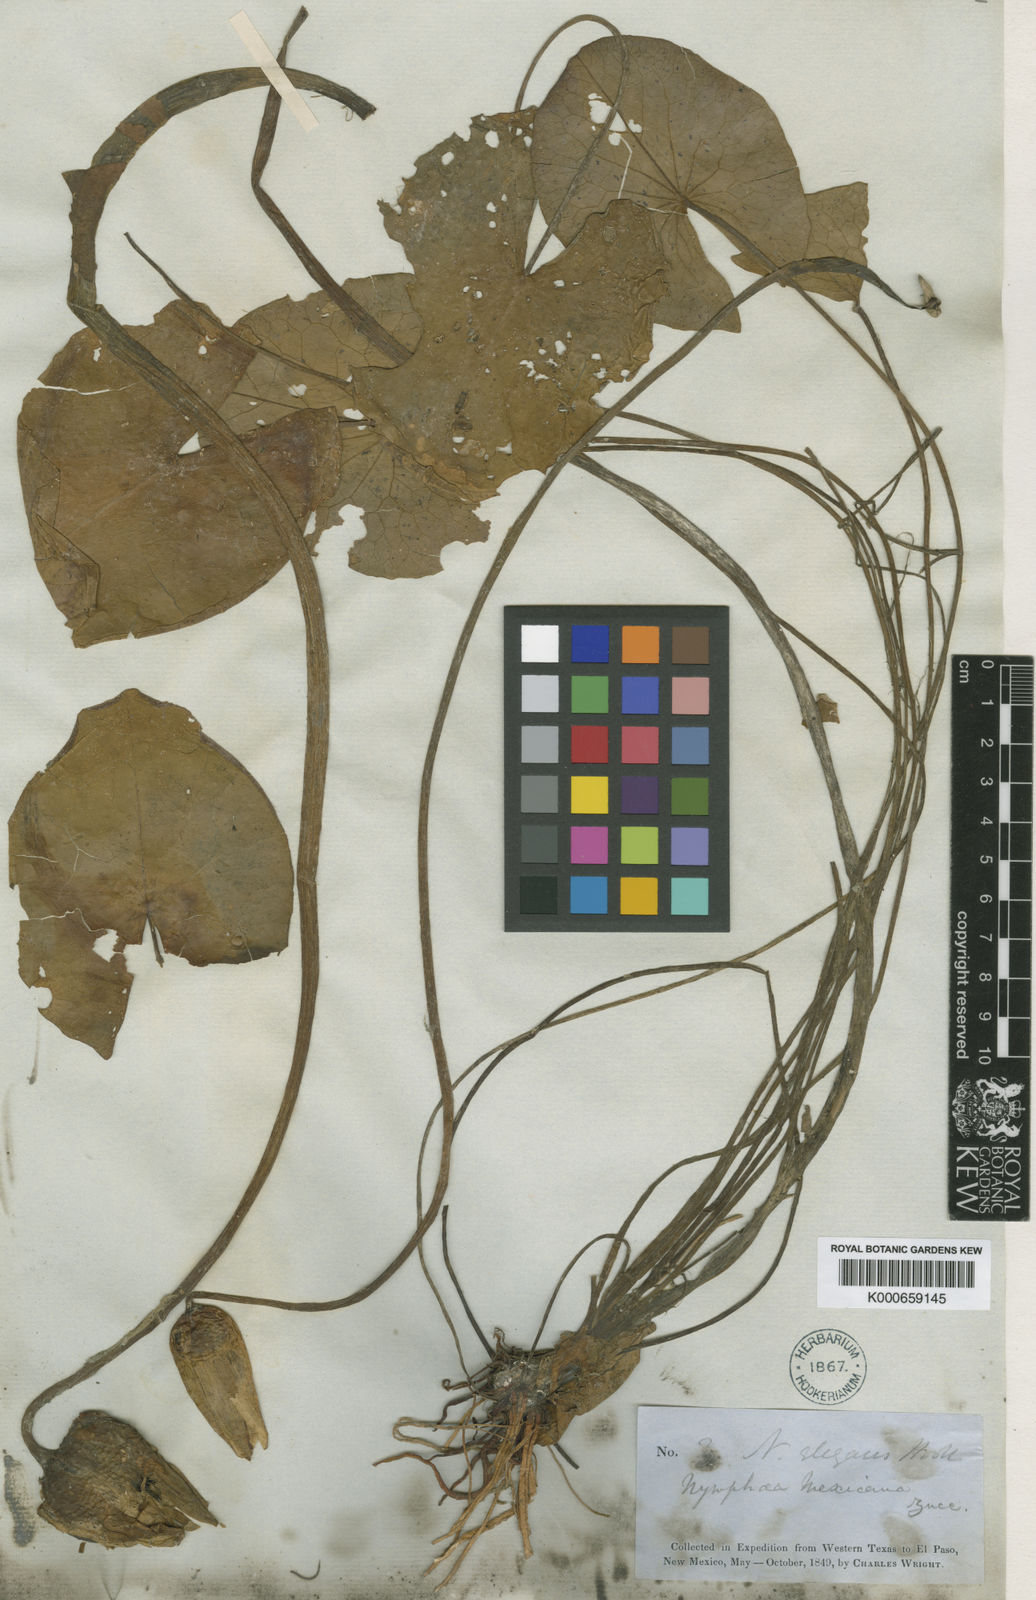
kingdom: Plantae
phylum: Tracheophyta
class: Magnoliopsida
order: Nymphaeales
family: Nymphaeaceae
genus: Nymphaea
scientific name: Nymphaea mexicana
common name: Banana water-lily
